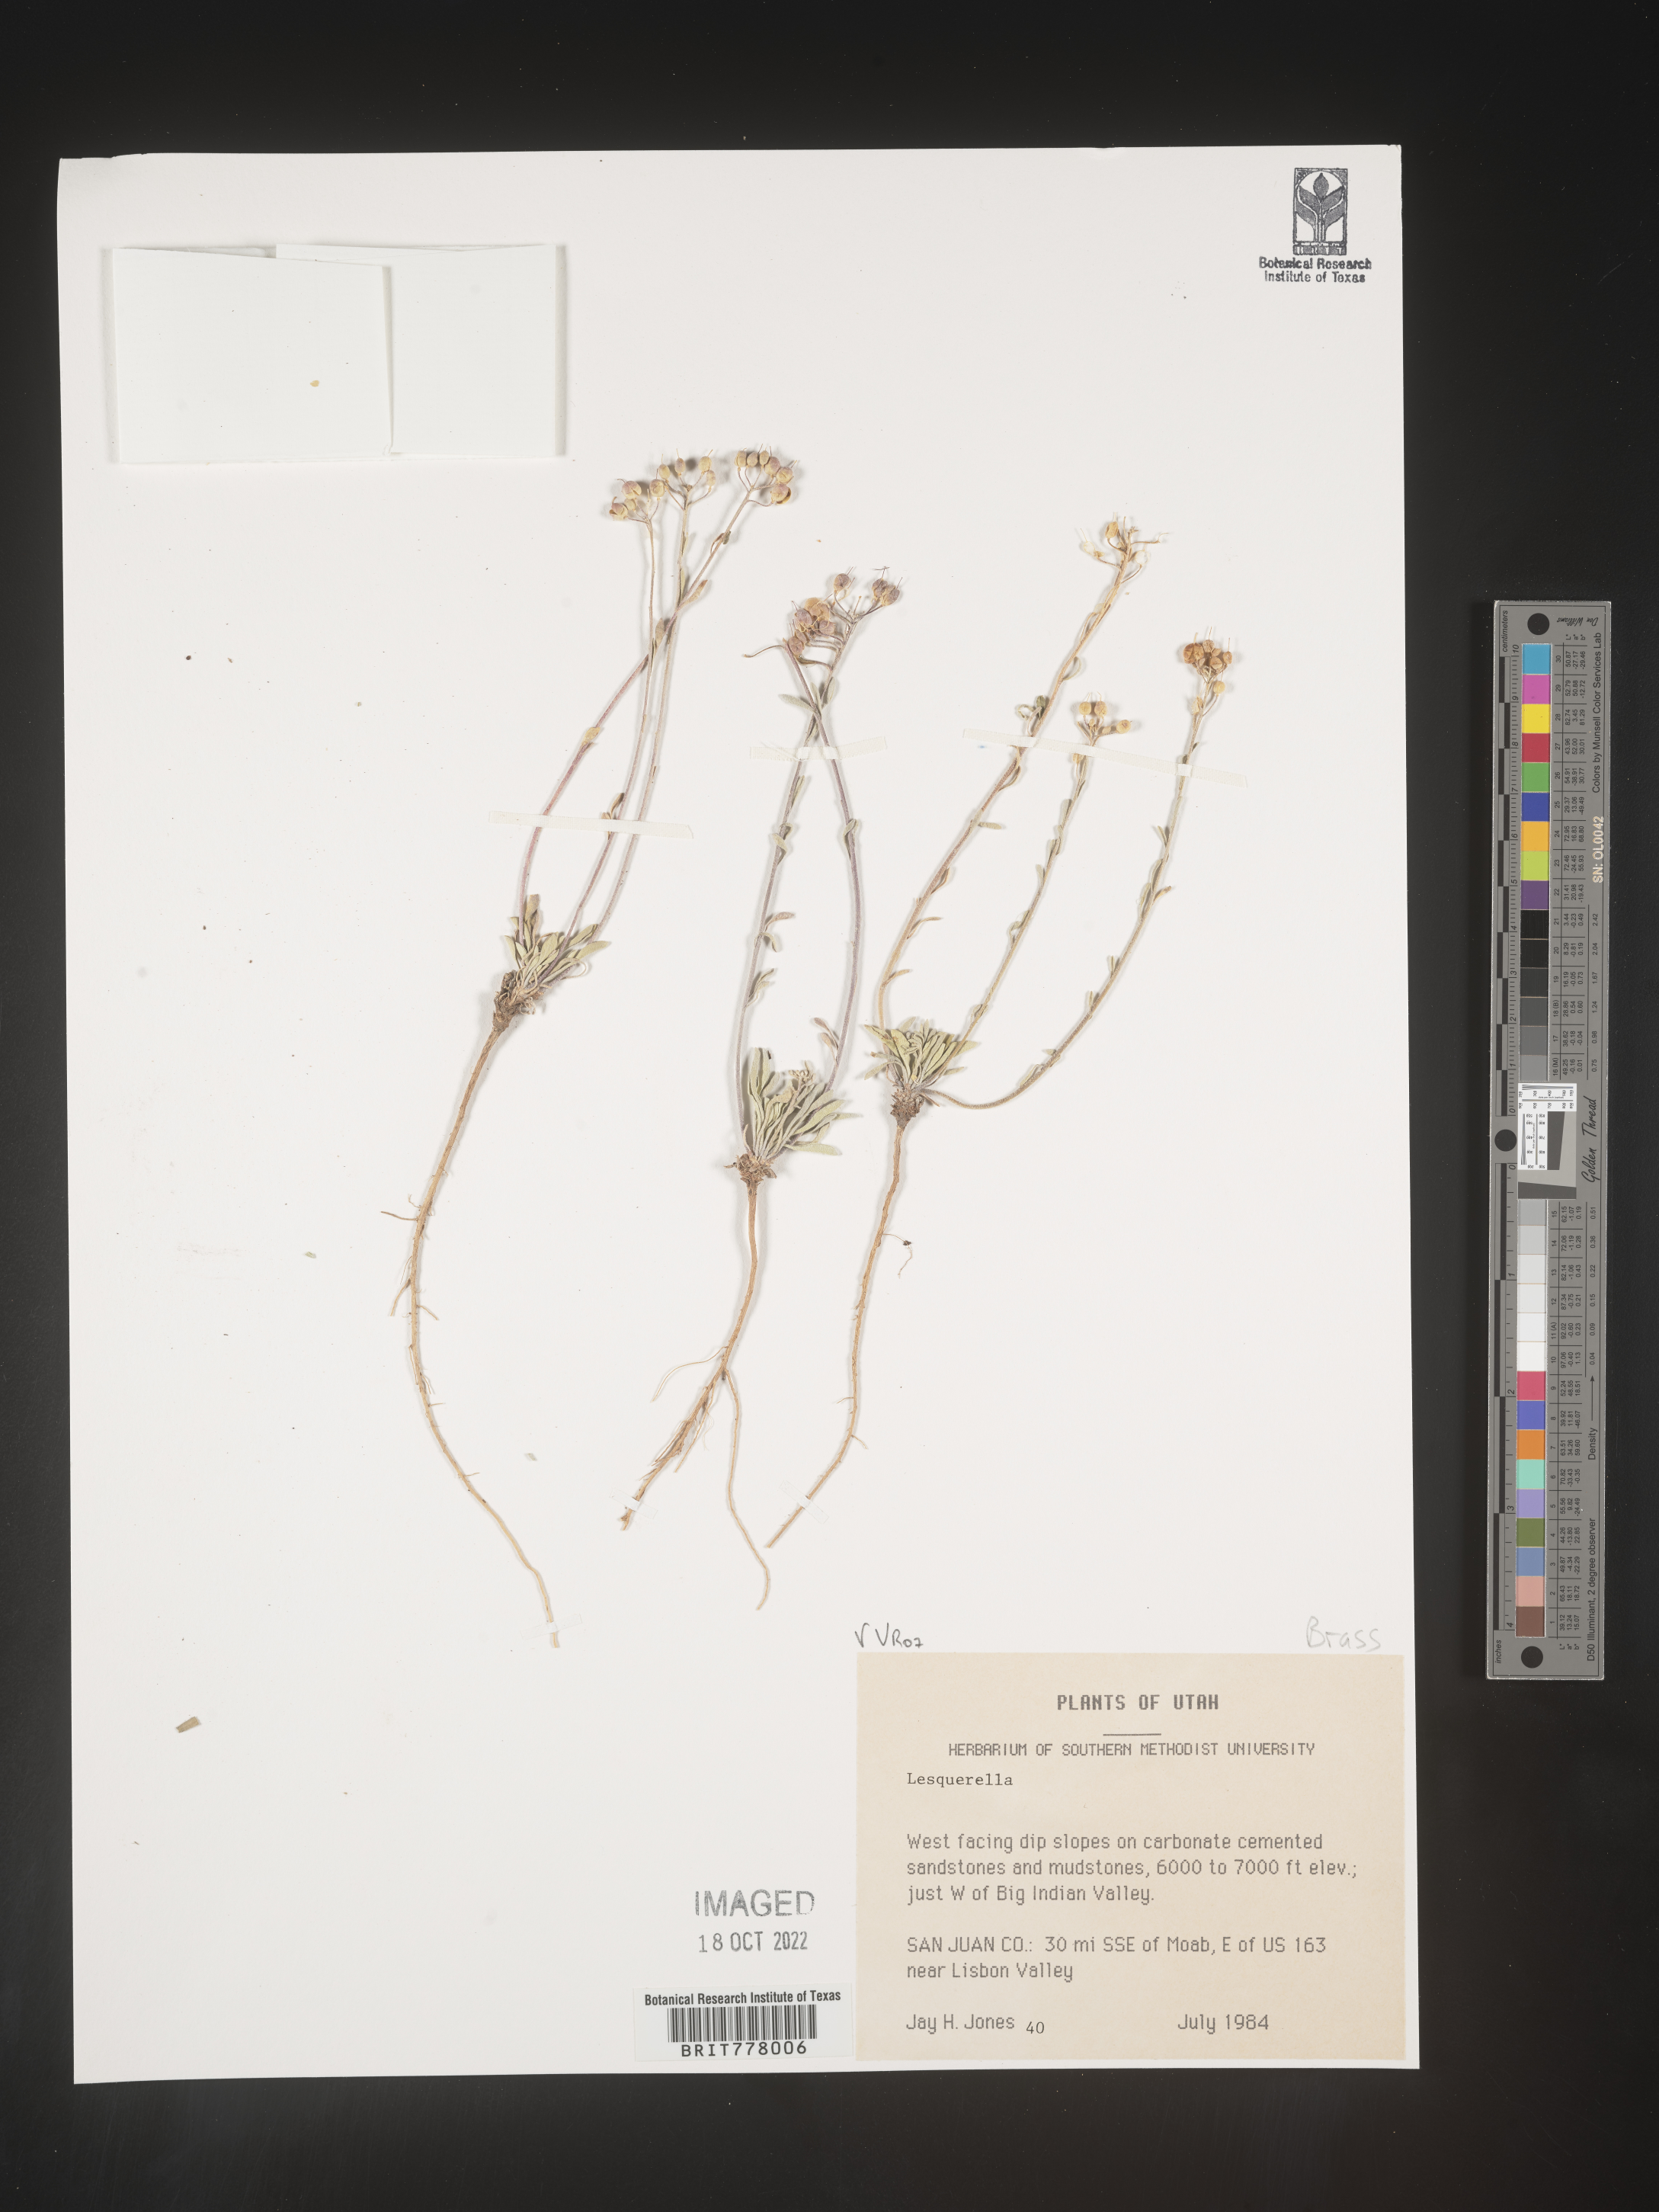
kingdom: Chromista
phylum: Cercozoa
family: Psammonobiotidae
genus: Lesquerella
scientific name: Lesquerella
